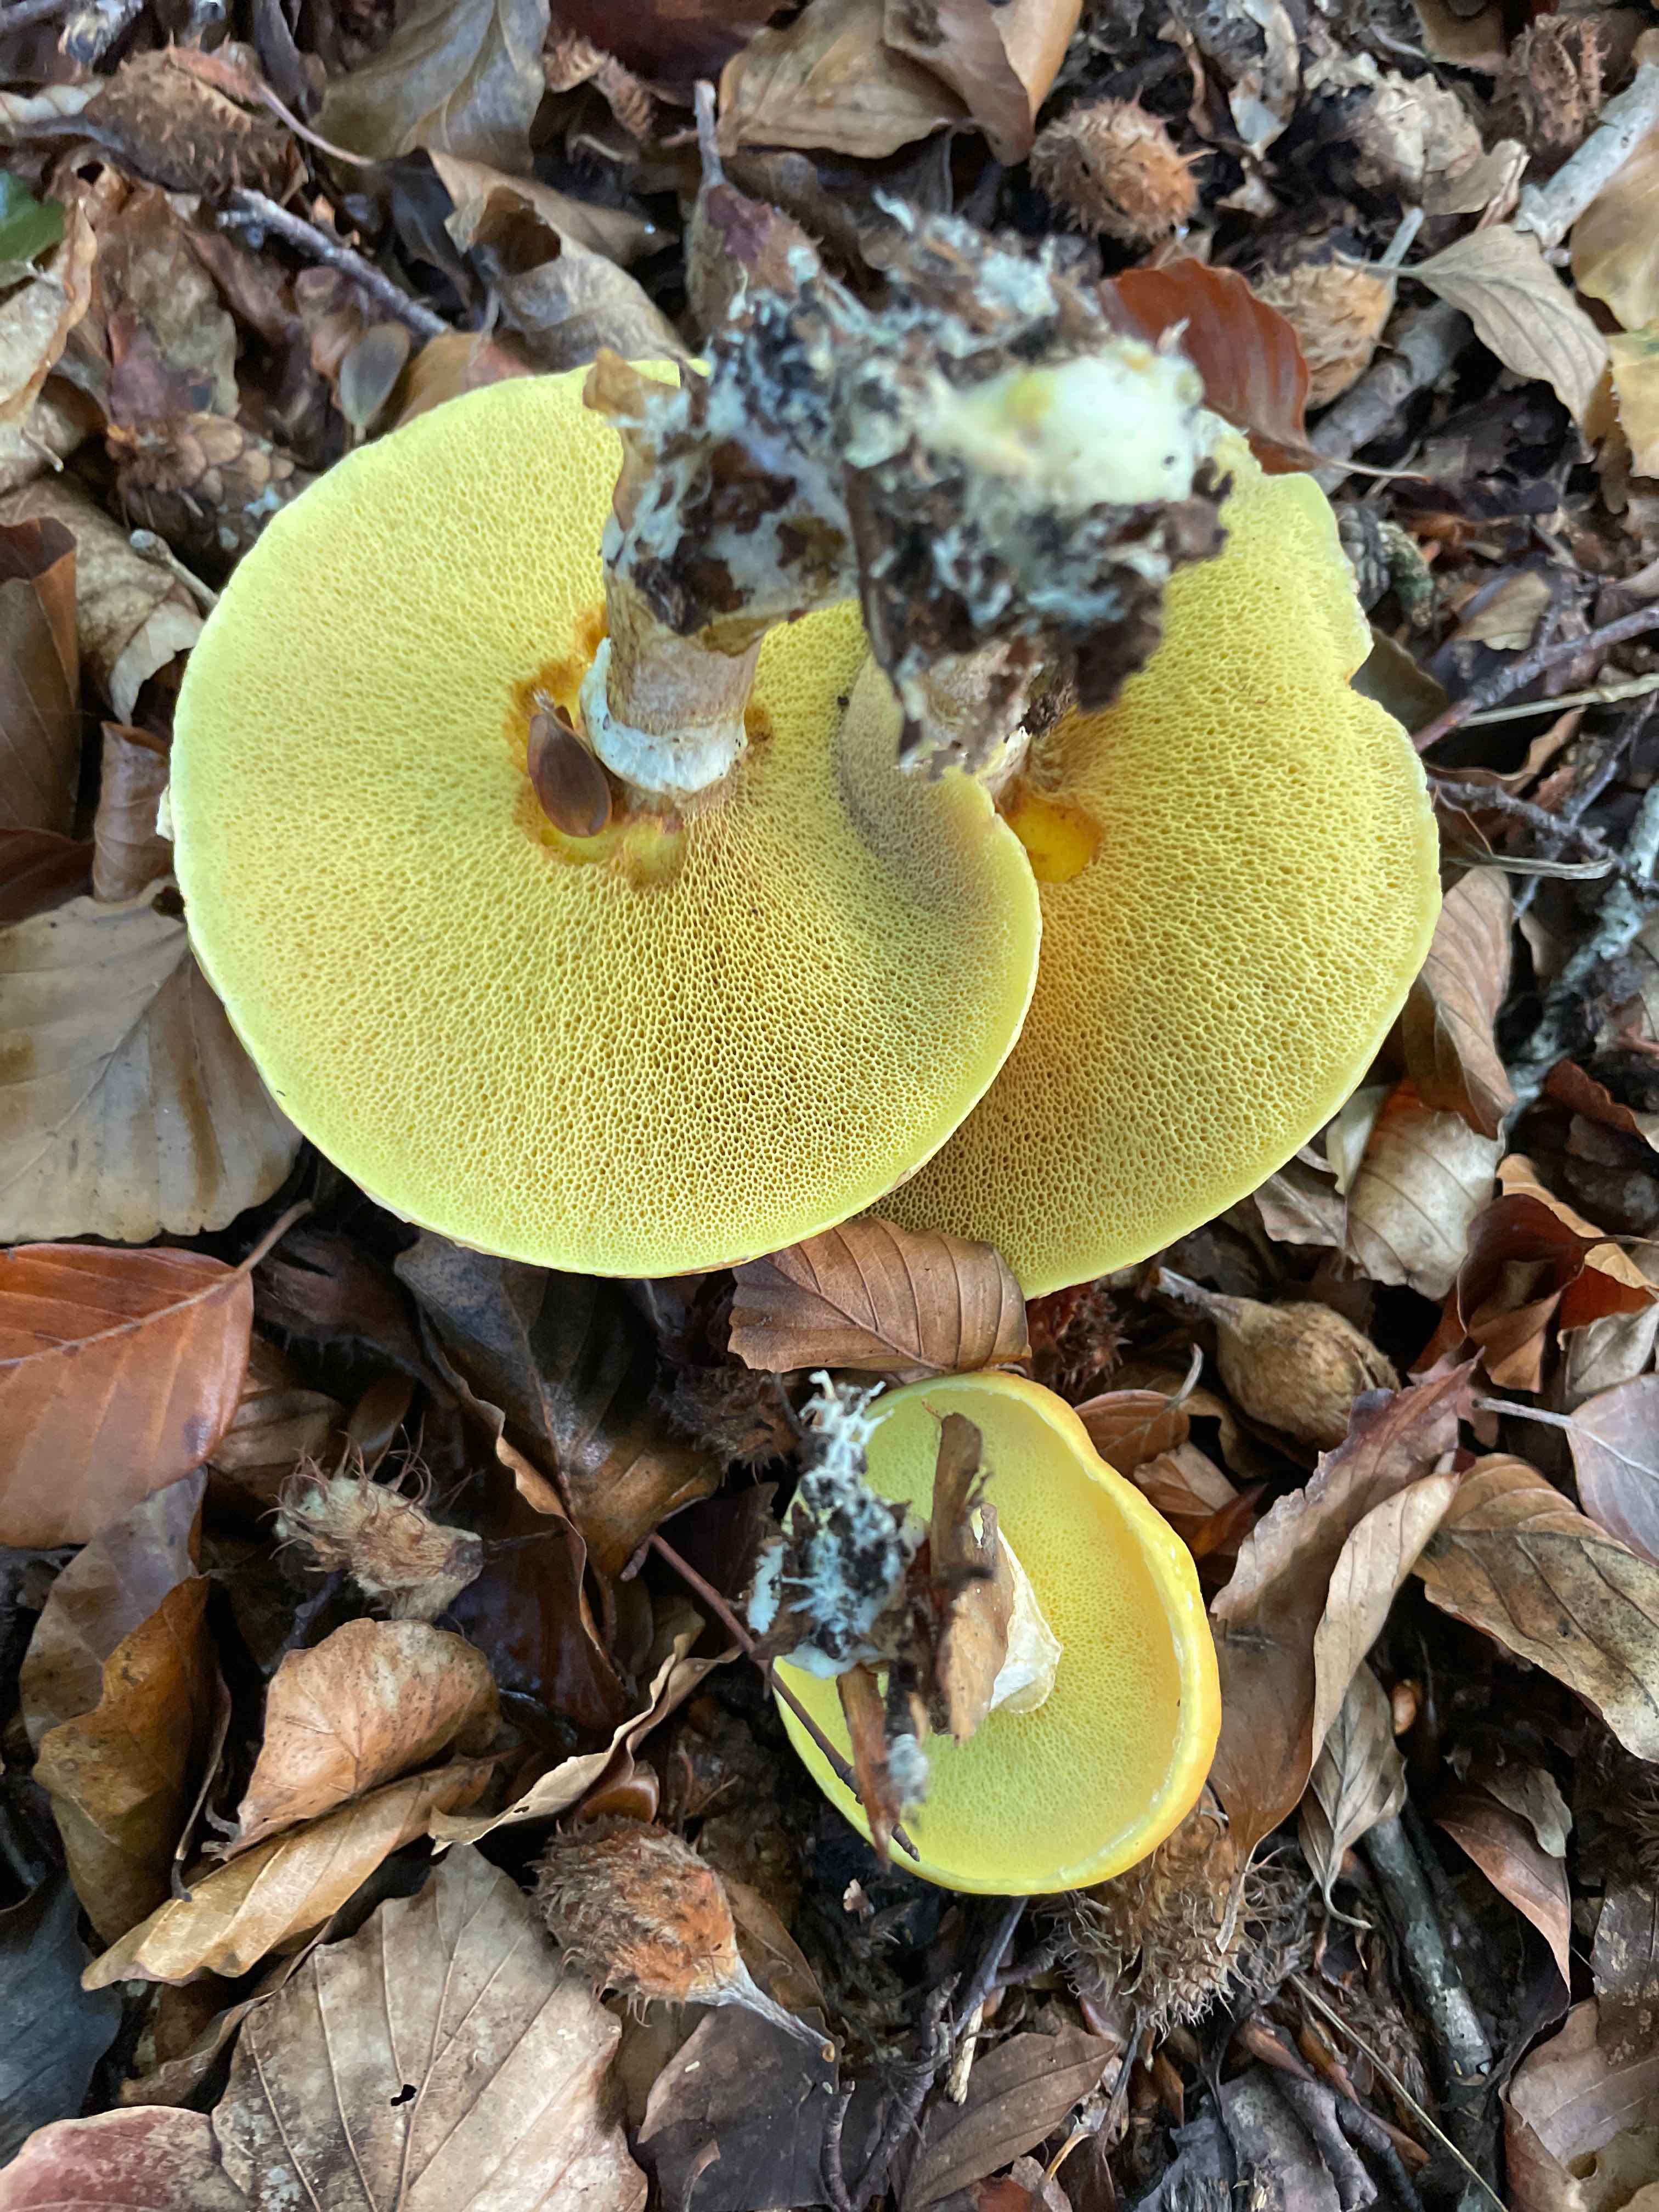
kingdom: Fungi
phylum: Basidiomycota
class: Agaricomycetes
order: Boletales
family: Suillaceae
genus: Suillus
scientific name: Suillus grevillei
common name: lærke-slimrørhat
